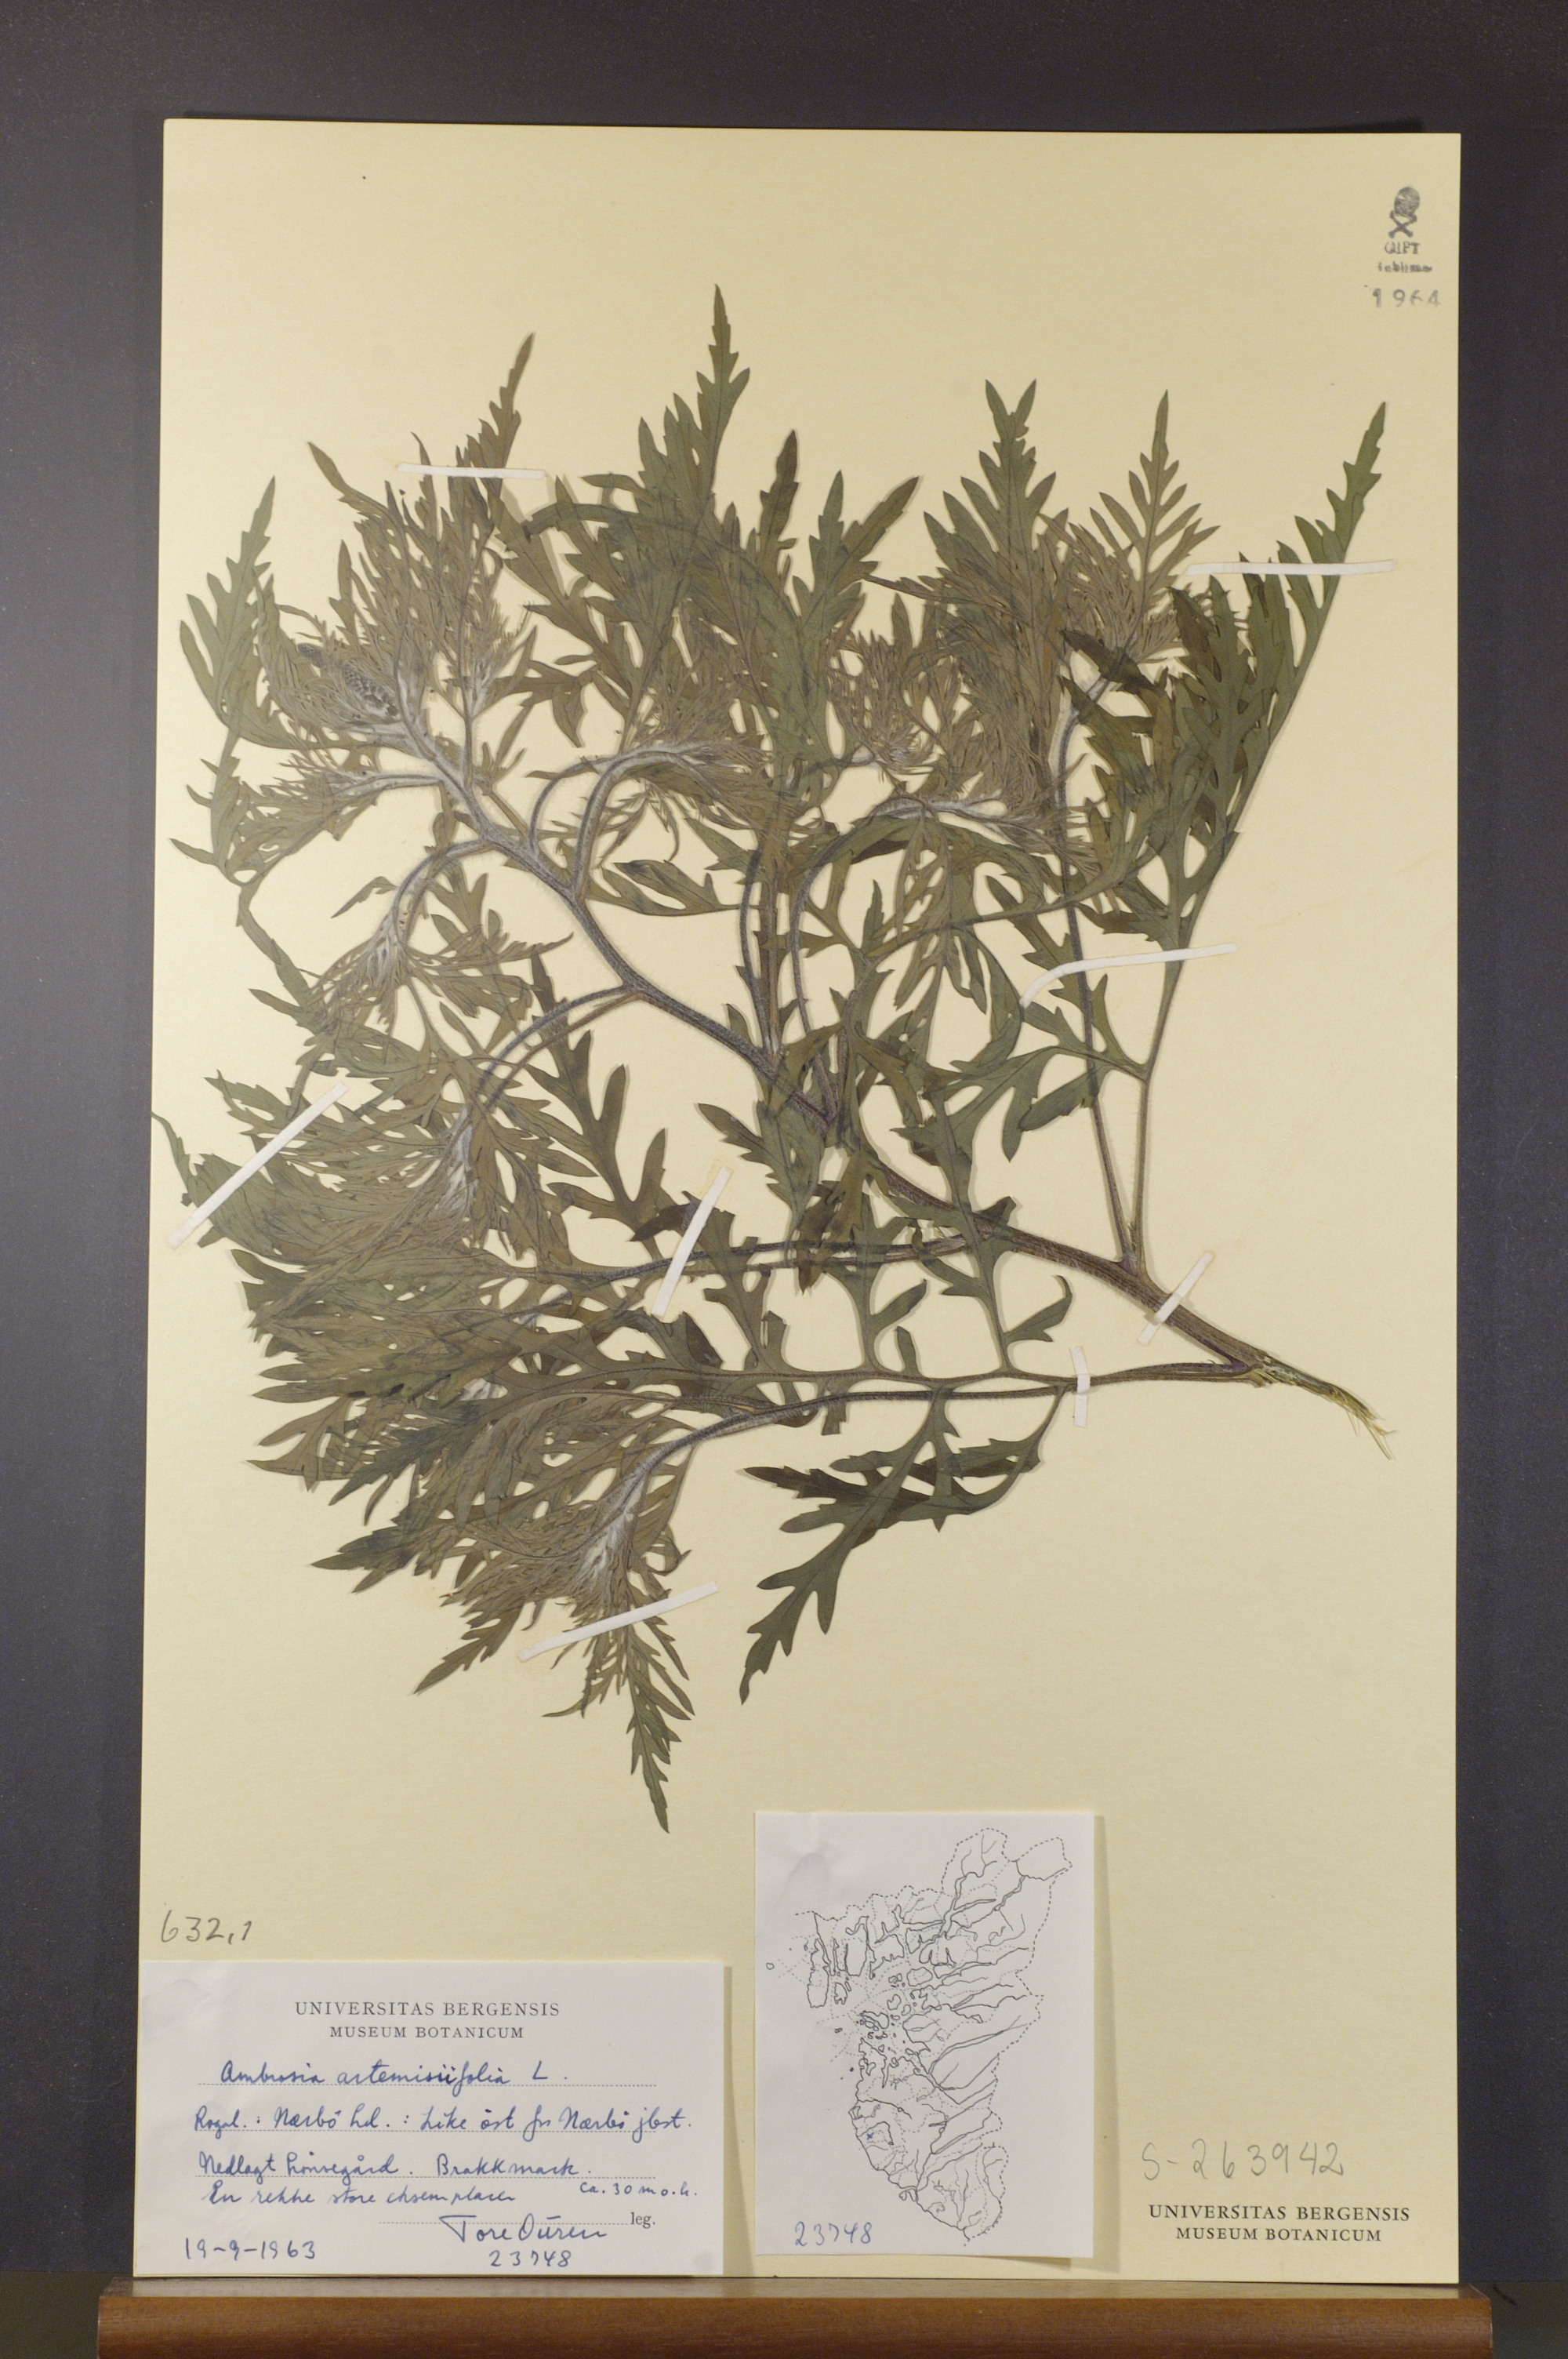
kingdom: Plantae
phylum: Tracheophyta
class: Magnoliopsida
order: Asterales
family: Asteraceae
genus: Ambrosia
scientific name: Ambrosia artemisiifolia
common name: Annual ragweed
